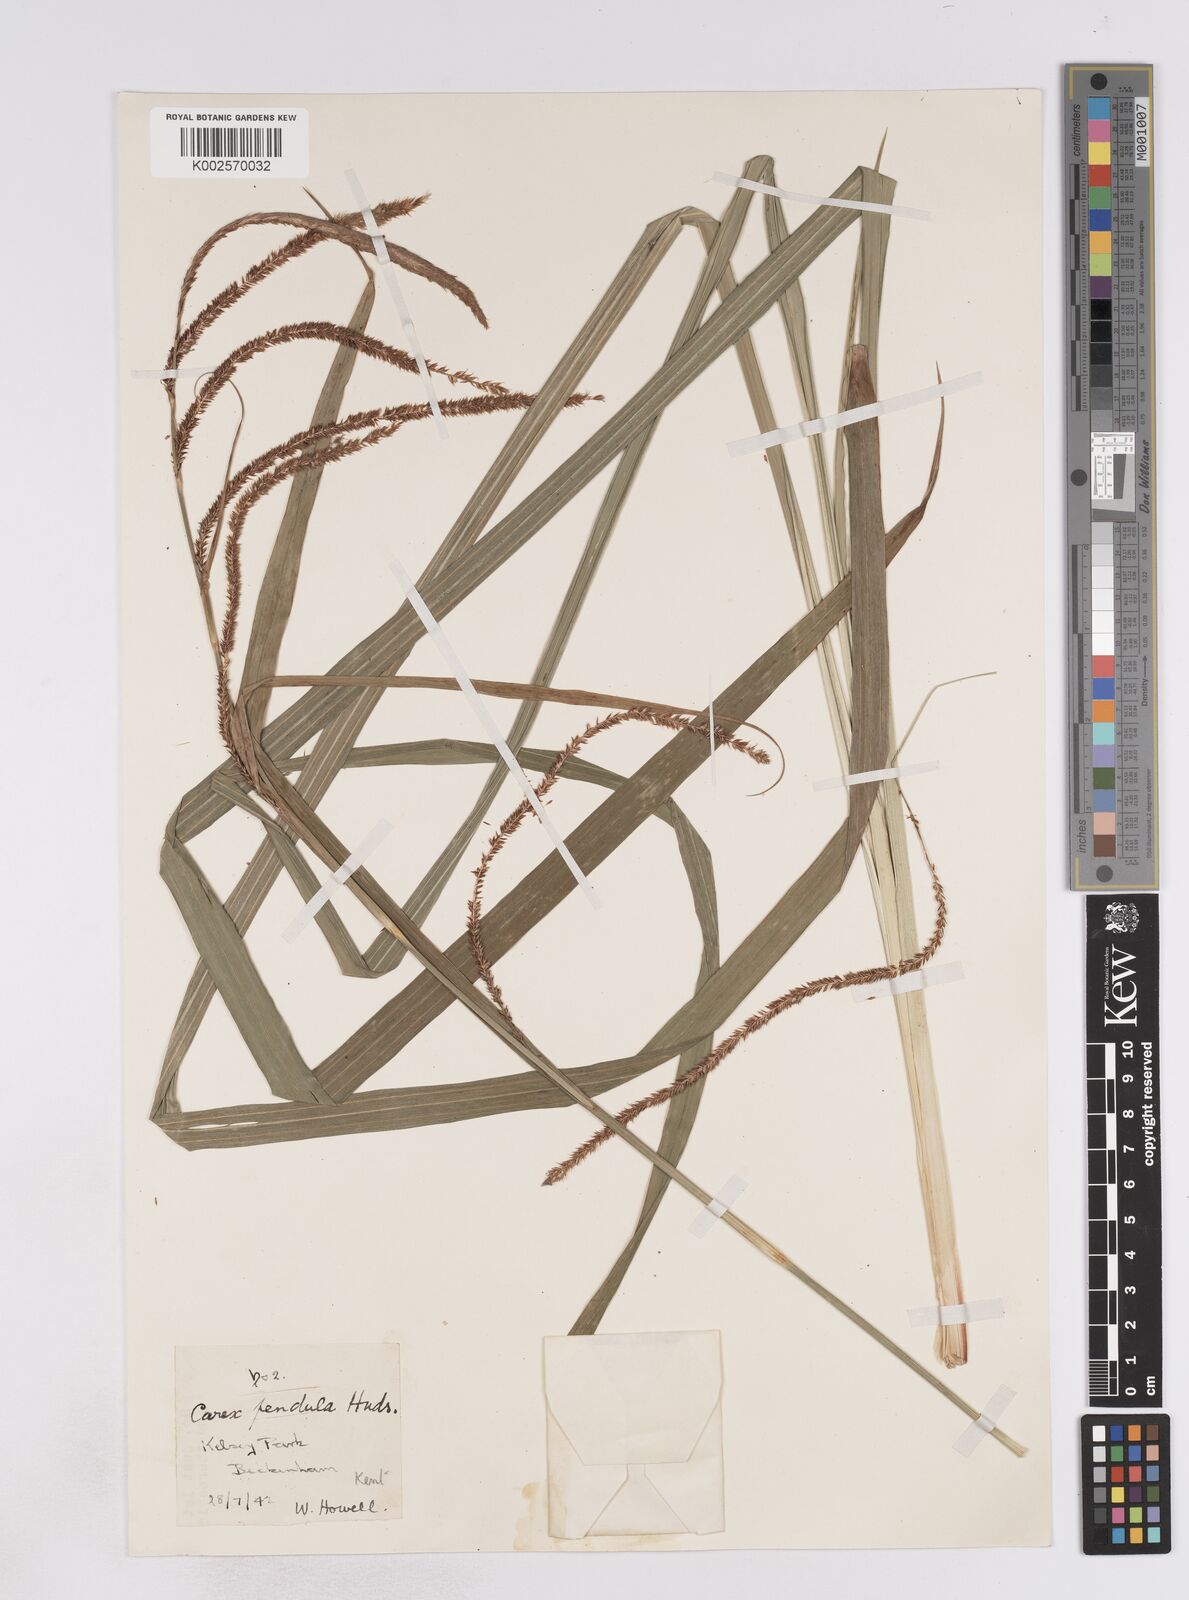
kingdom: Plantae
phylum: Tracheophyta
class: Liliopsida
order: Poales
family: Cyperaceae
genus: Carex
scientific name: Carex pendula
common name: Pendulous sedge
